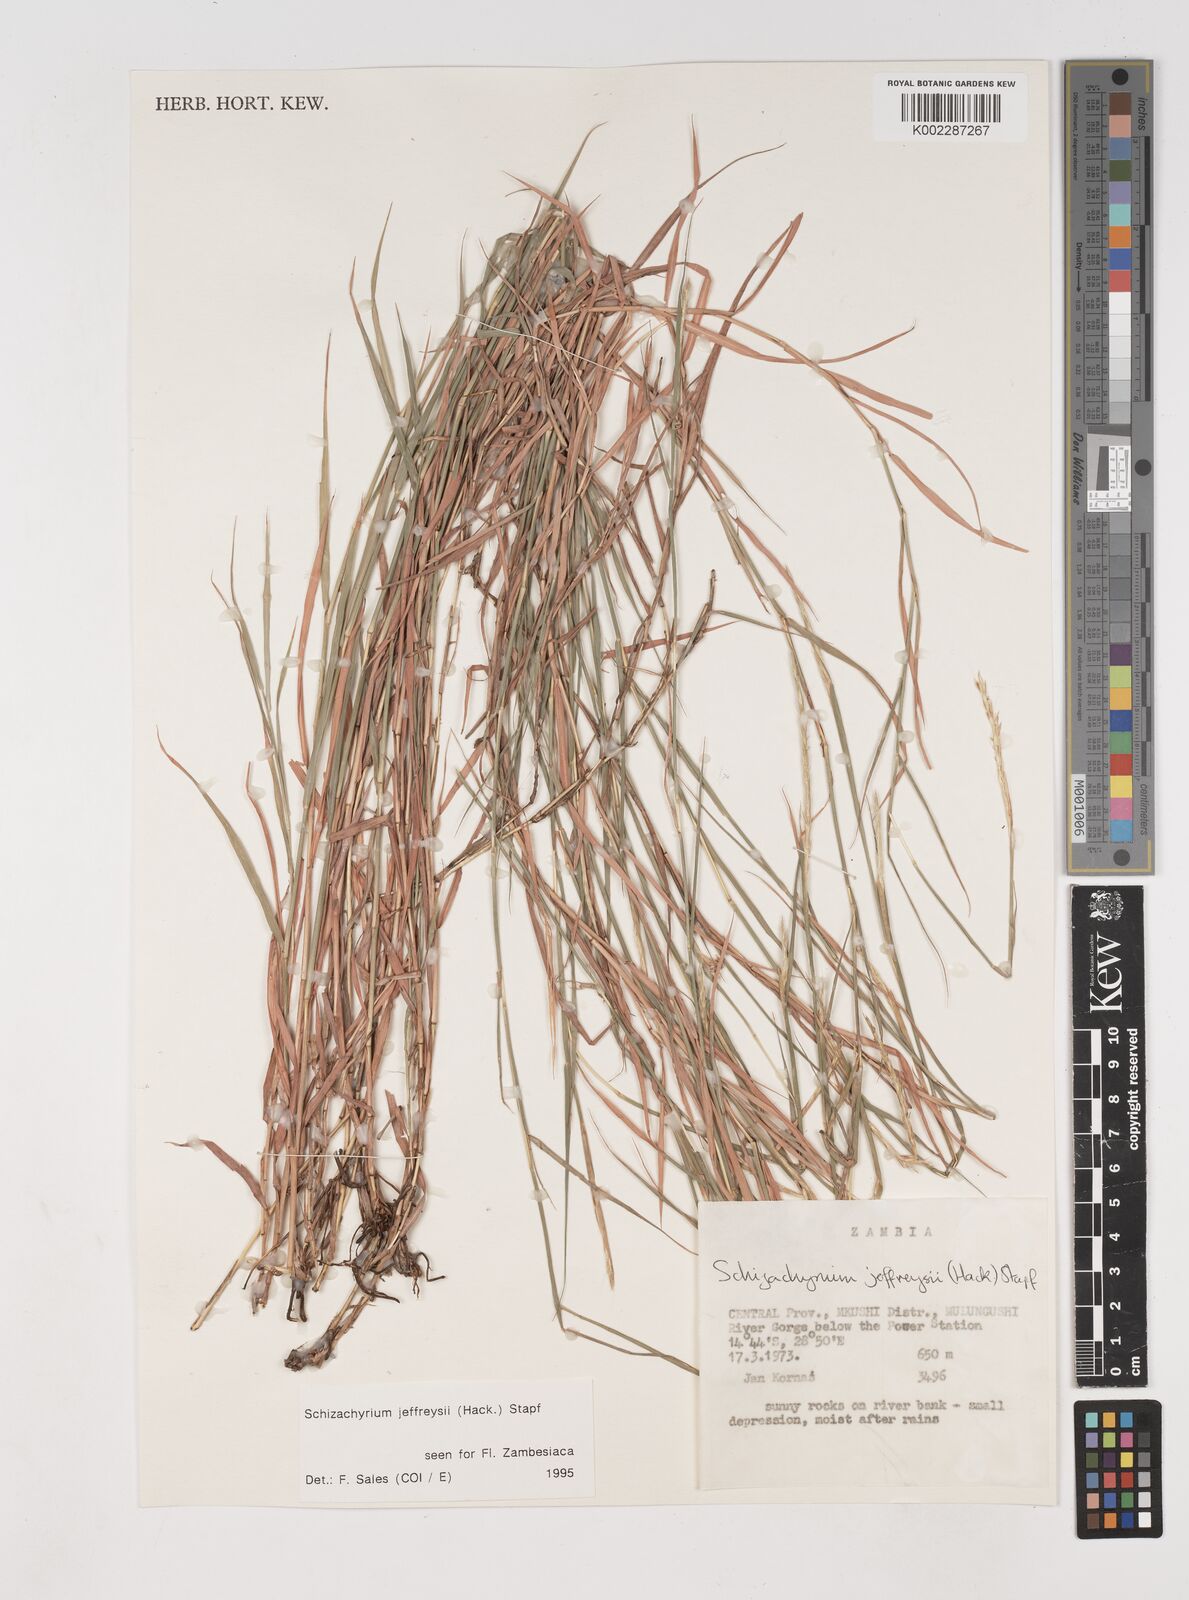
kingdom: Plantae
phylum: Tracheophyta
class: Liliopsida
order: Poales
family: Poaceae
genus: Schizachyrium
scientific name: Schizachyrium jeffreysii
